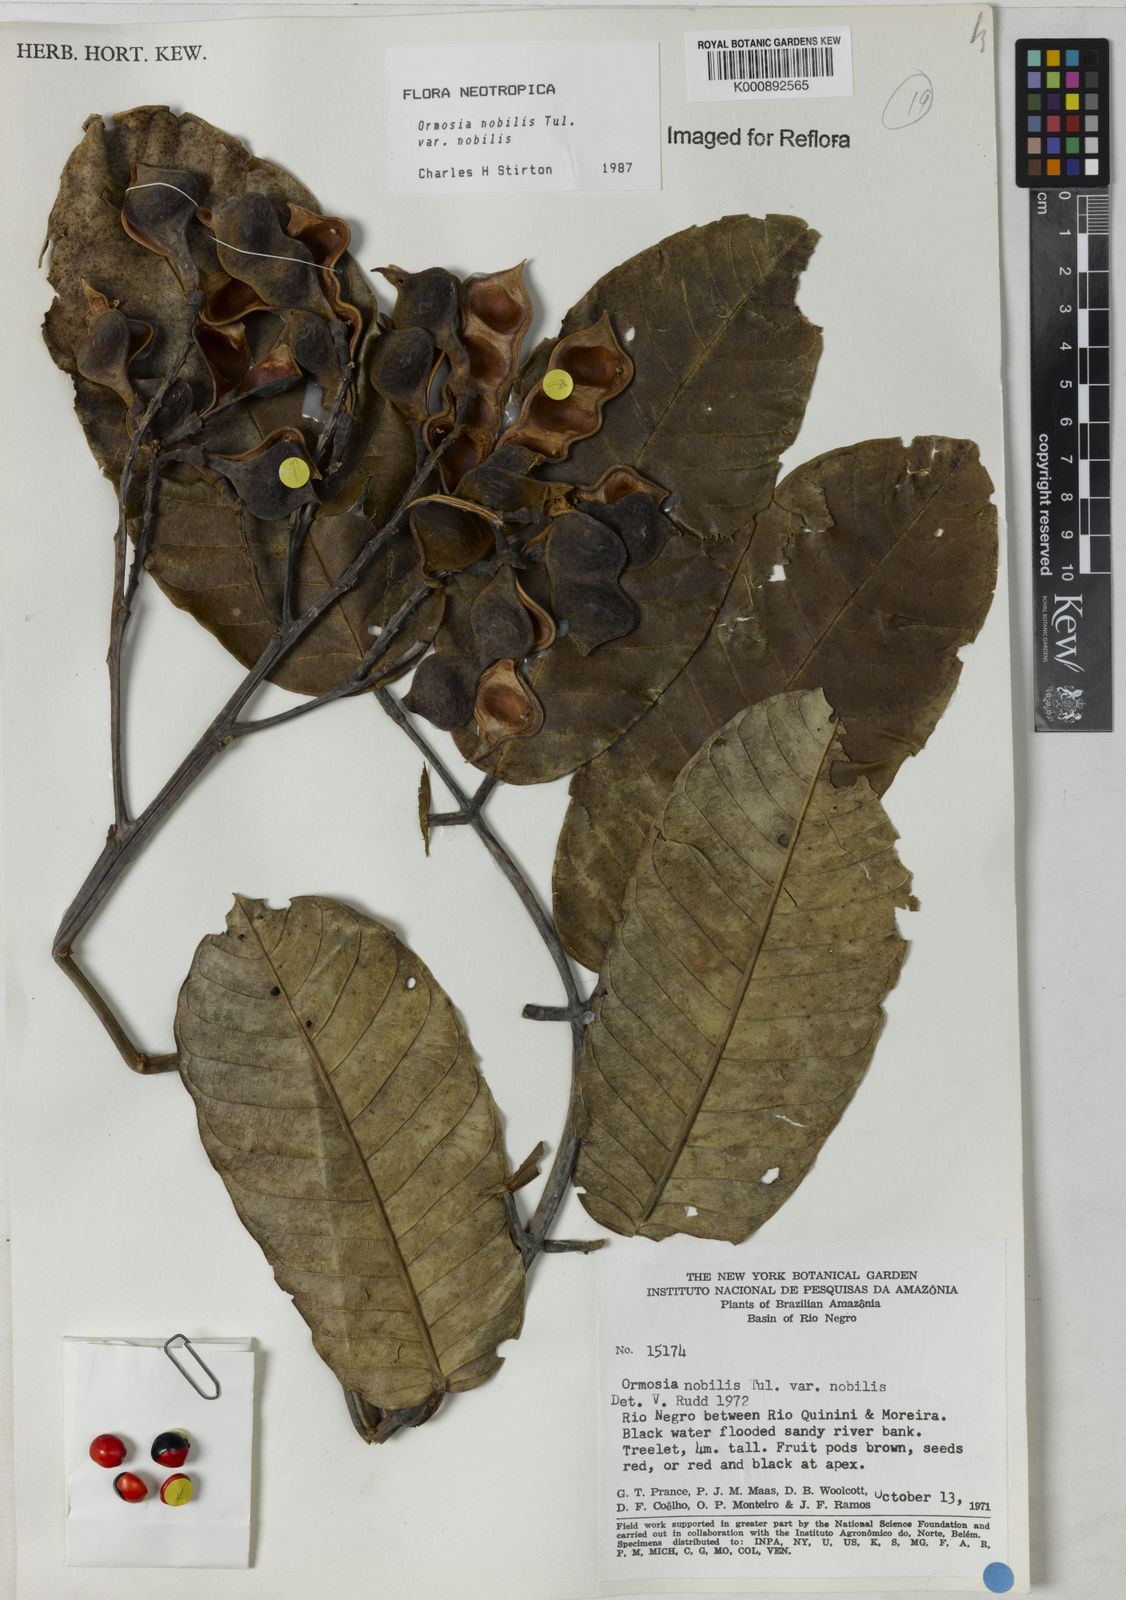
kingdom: Plantae
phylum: Tracheophyta
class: Magnoliopsida
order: Fabales
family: Fabaceae
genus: Ormosia
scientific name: Ormosia nobilis
